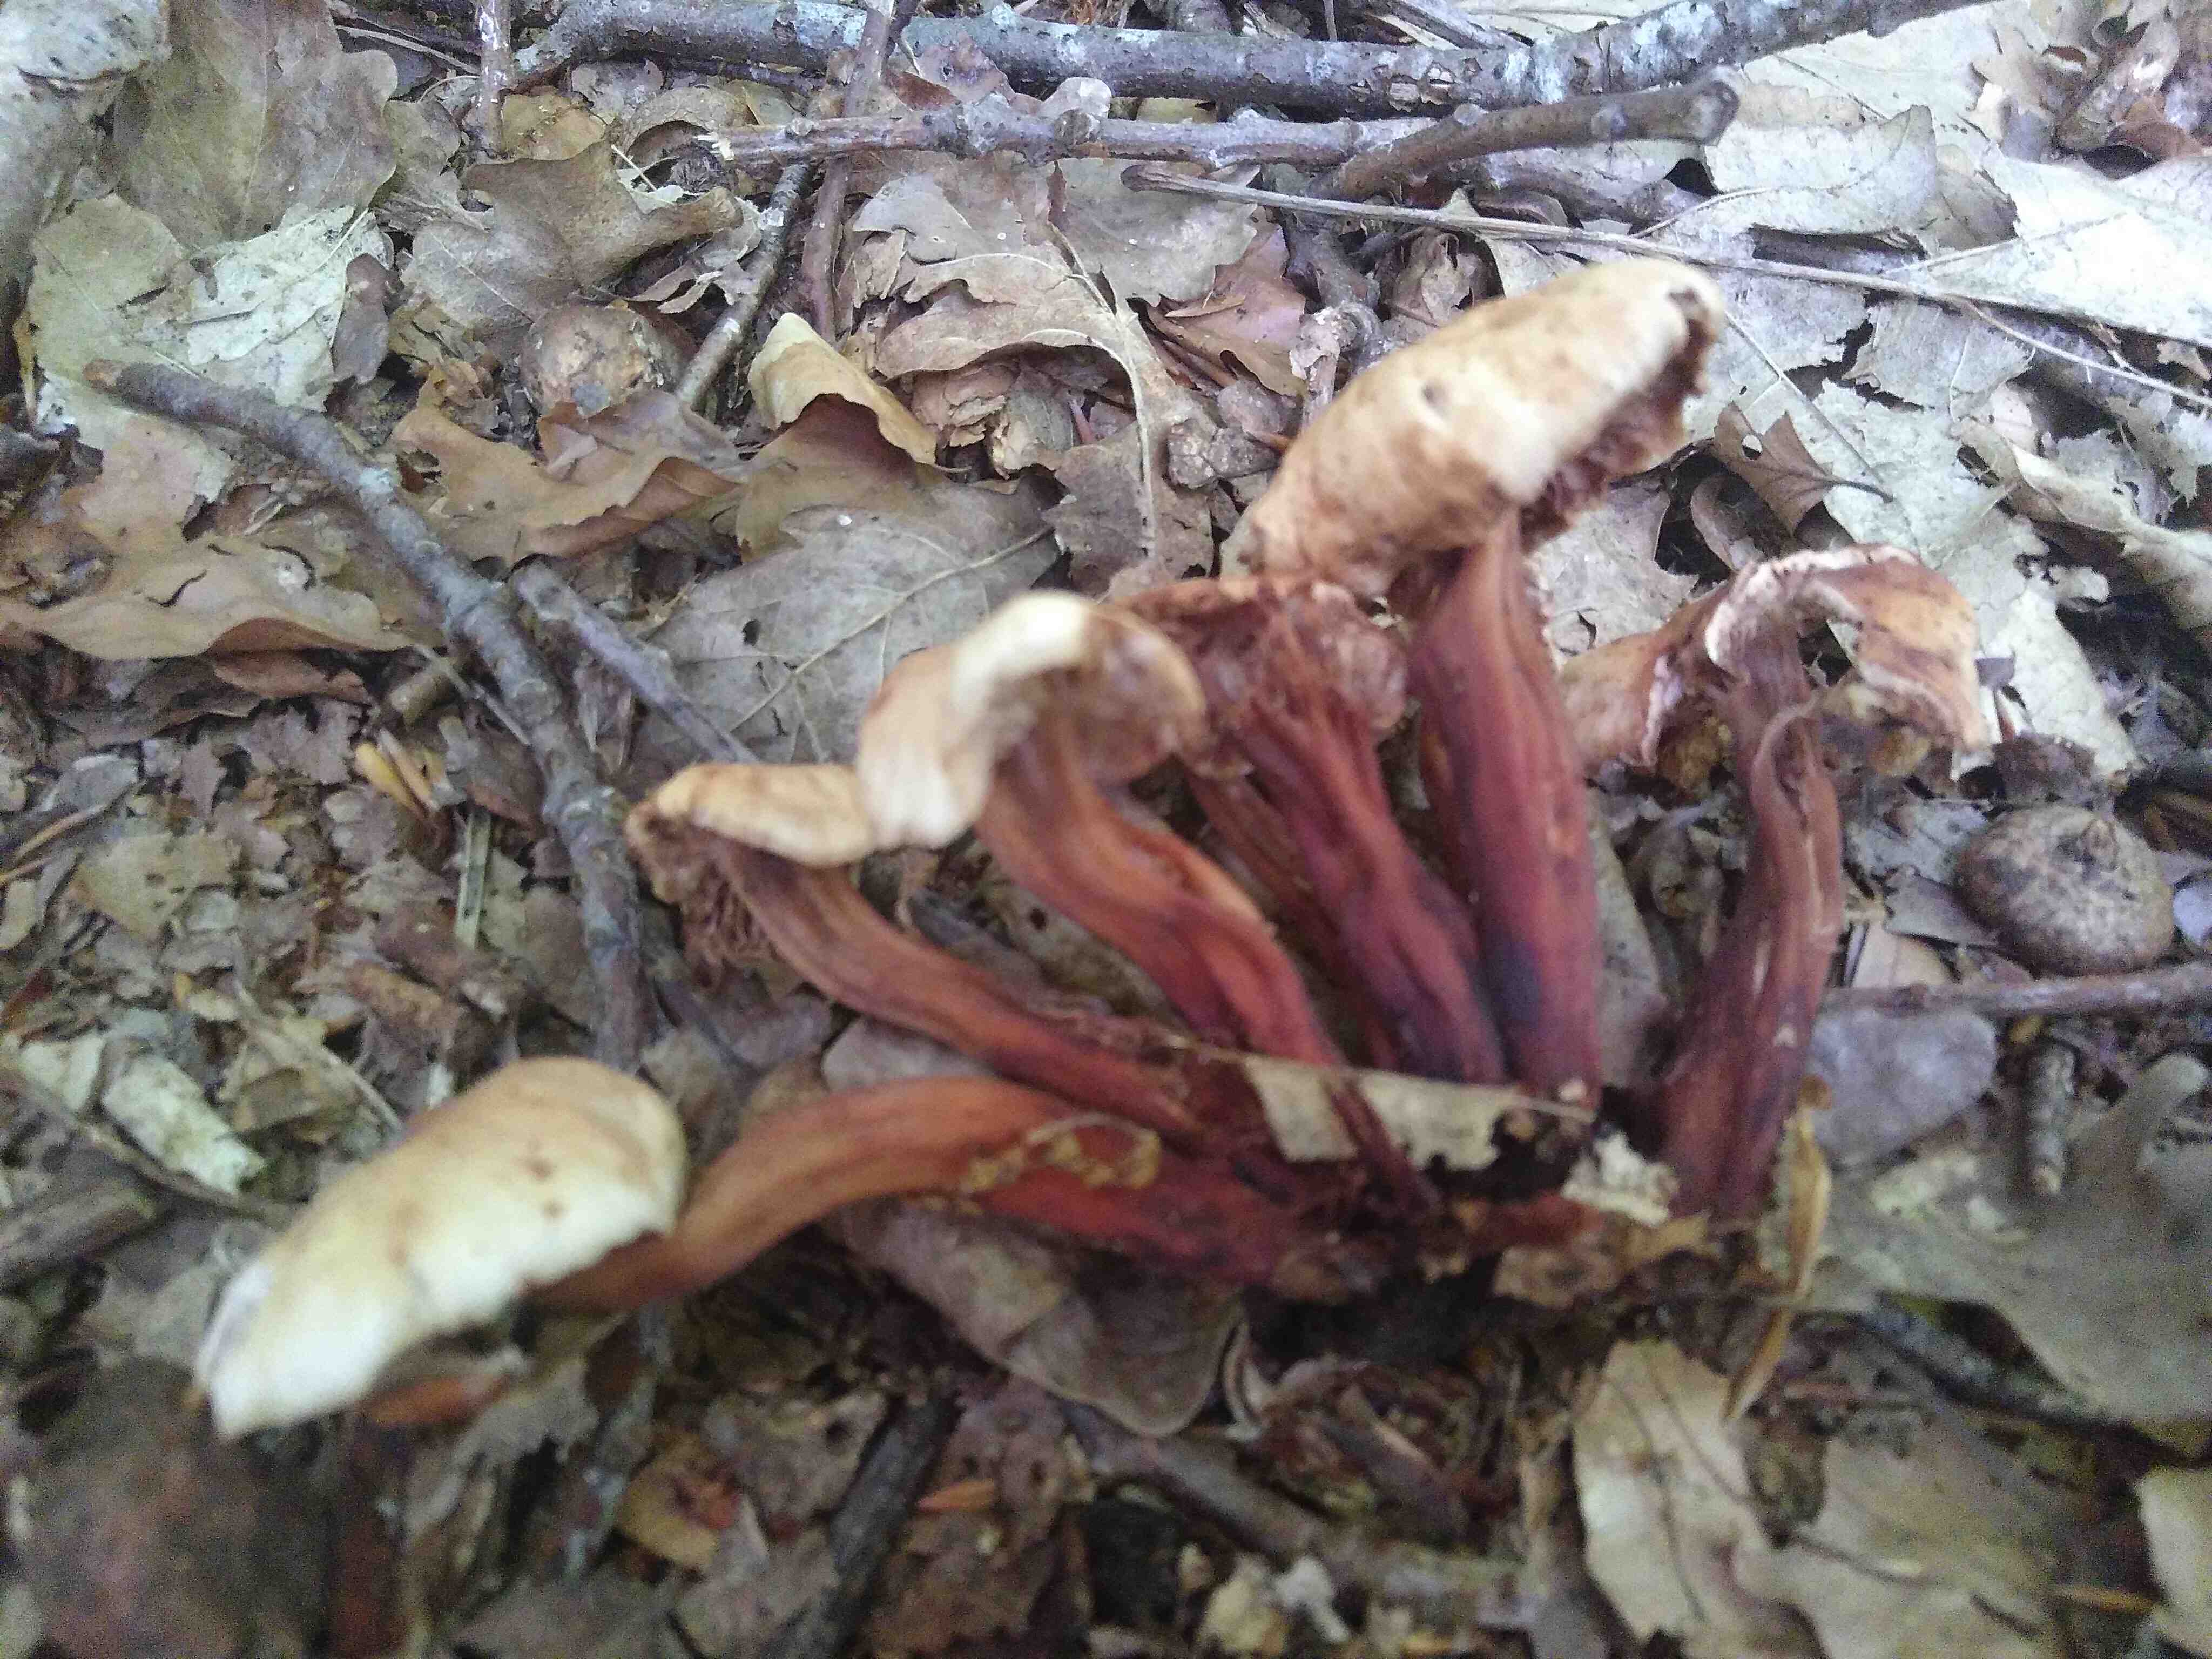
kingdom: Fungi
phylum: Basidiomycota
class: Agaricomycetes
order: Agaricales
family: Omphalotaceae
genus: Gymnopus
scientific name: Gymnopus fusipes
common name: tenstokket fladhat
